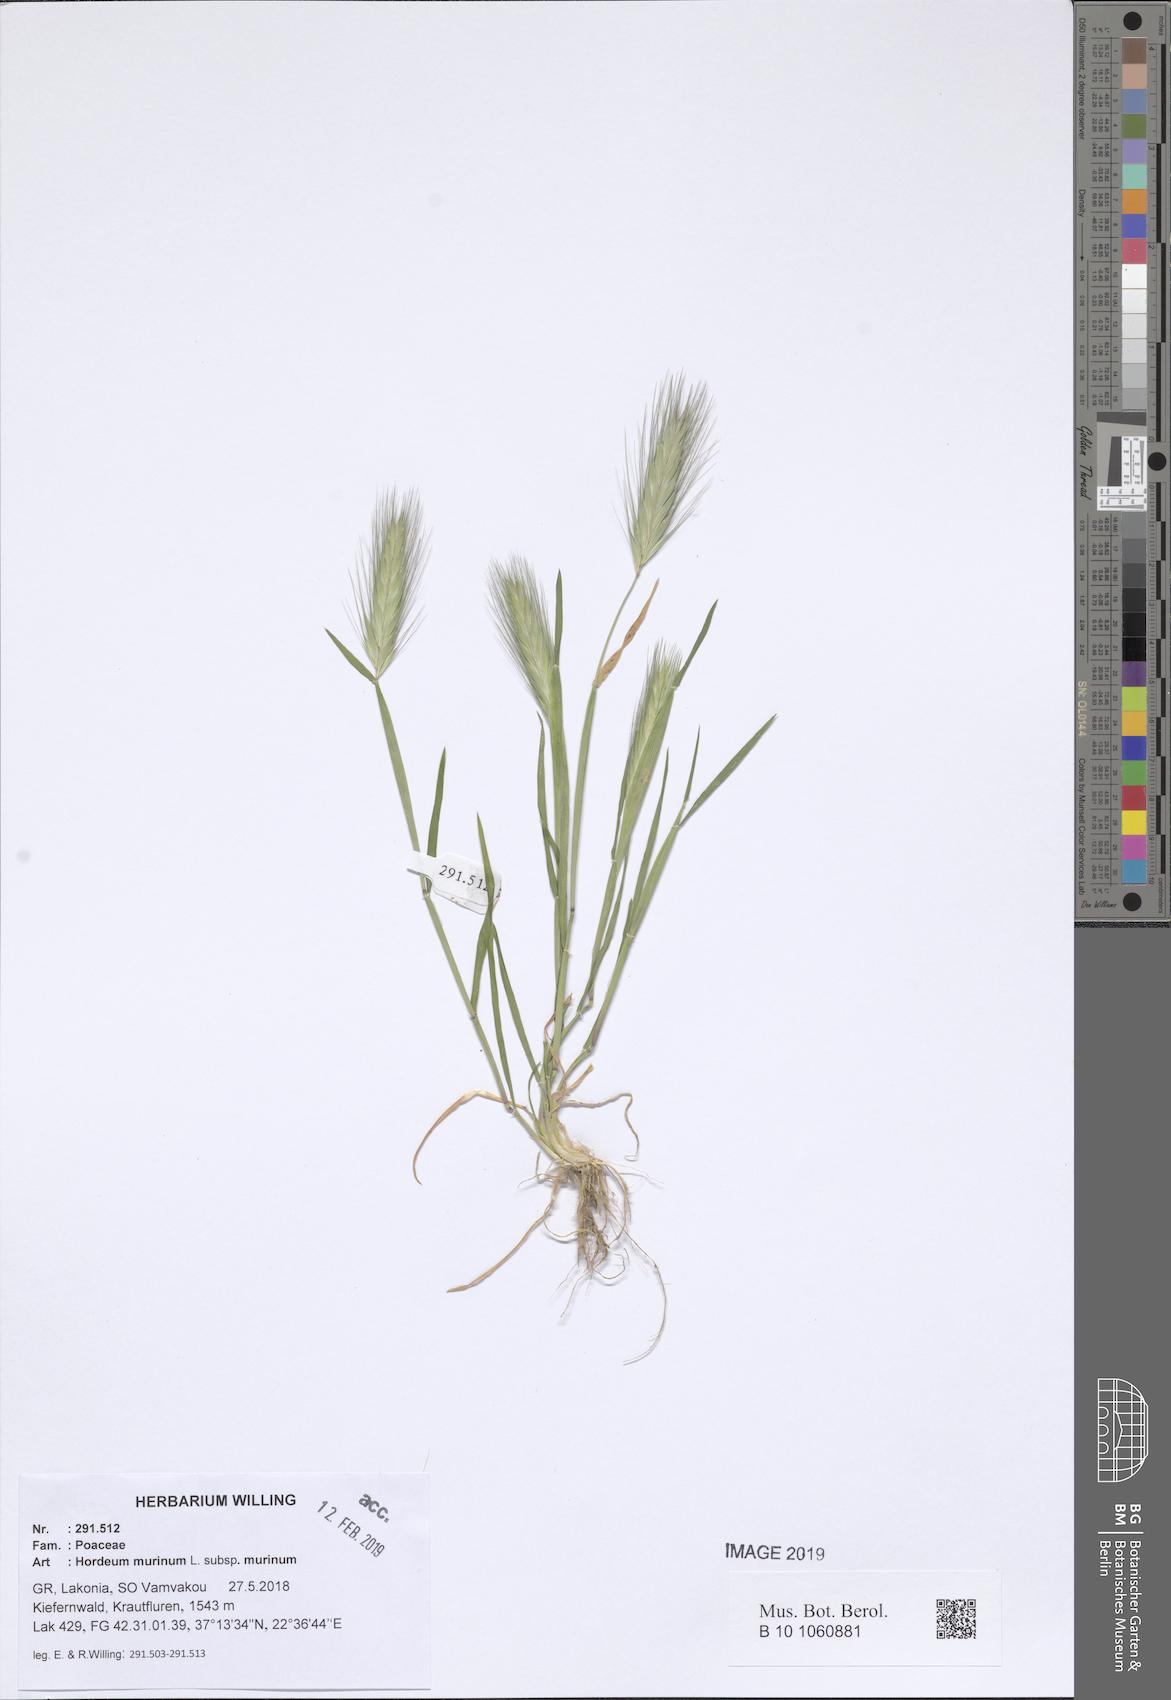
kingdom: Plantae
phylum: Tracheophyta
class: Liliopsida
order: Poales
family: Poaceae
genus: Hordeum
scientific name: Hordeum murinum
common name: Wall barley
